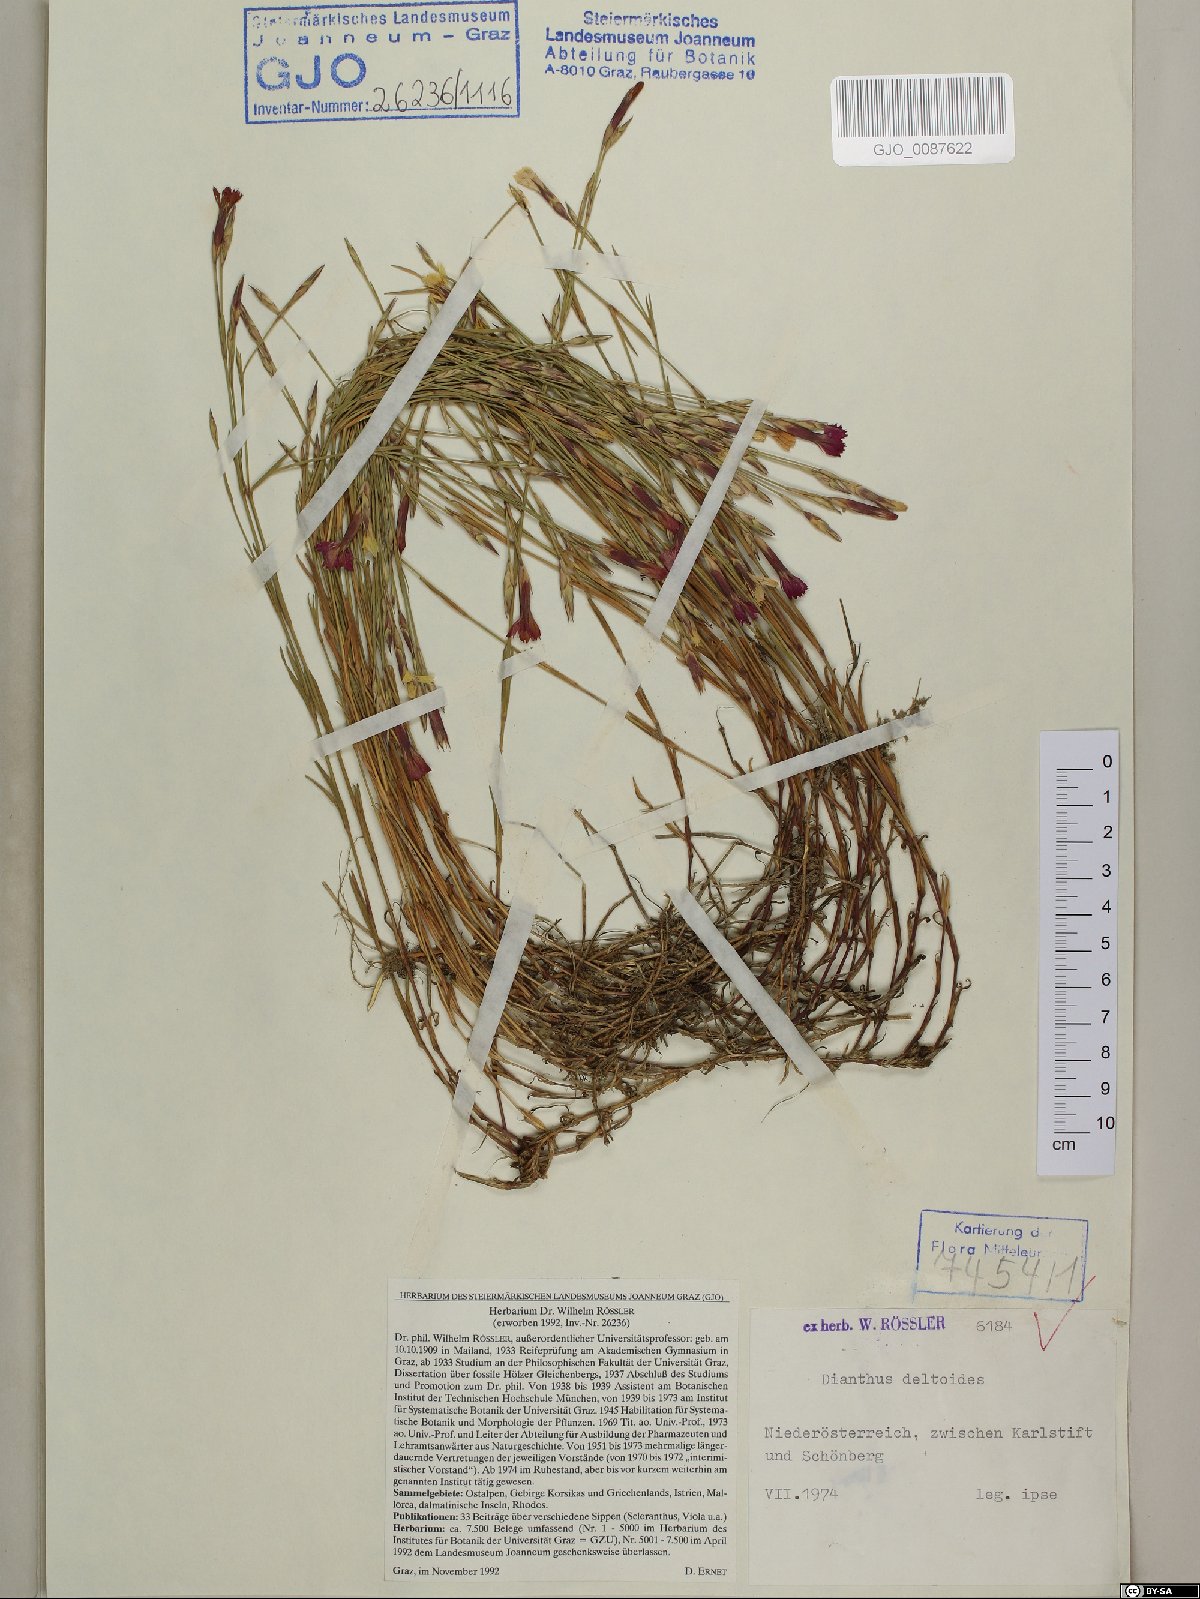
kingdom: Plantae
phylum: Tracheophyta
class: Magnoliopsida
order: Caryophyllales
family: Caryophyllaceae
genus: Dianthus
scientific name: Dianthus deltoides
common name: Maiden pink
